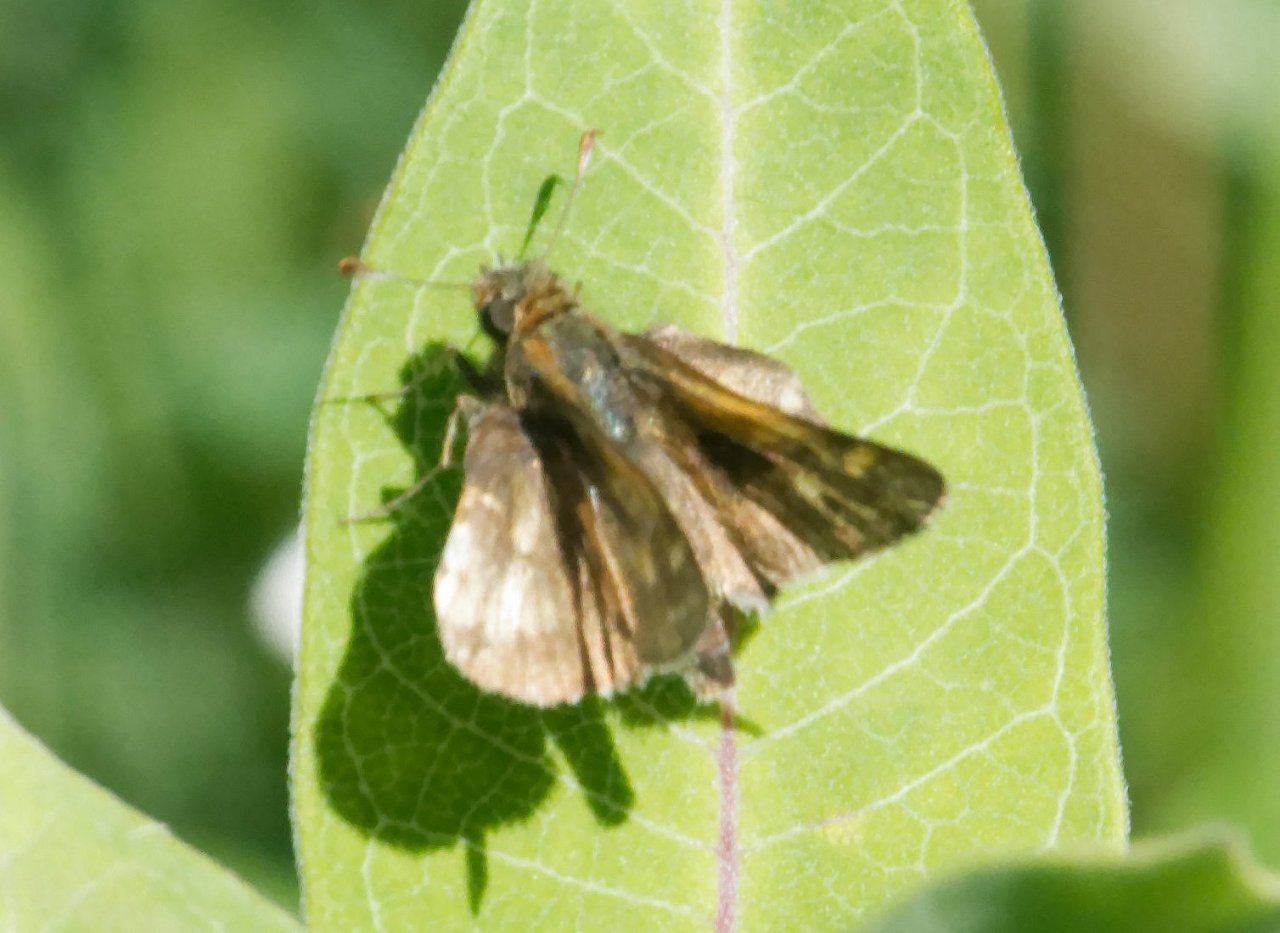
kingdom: Animalia
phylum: Arthropoda
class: Insecta
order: Lepidoptera
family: Hesperiidae
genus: Polites
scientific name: Polites coras
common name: Peck's Skipper
